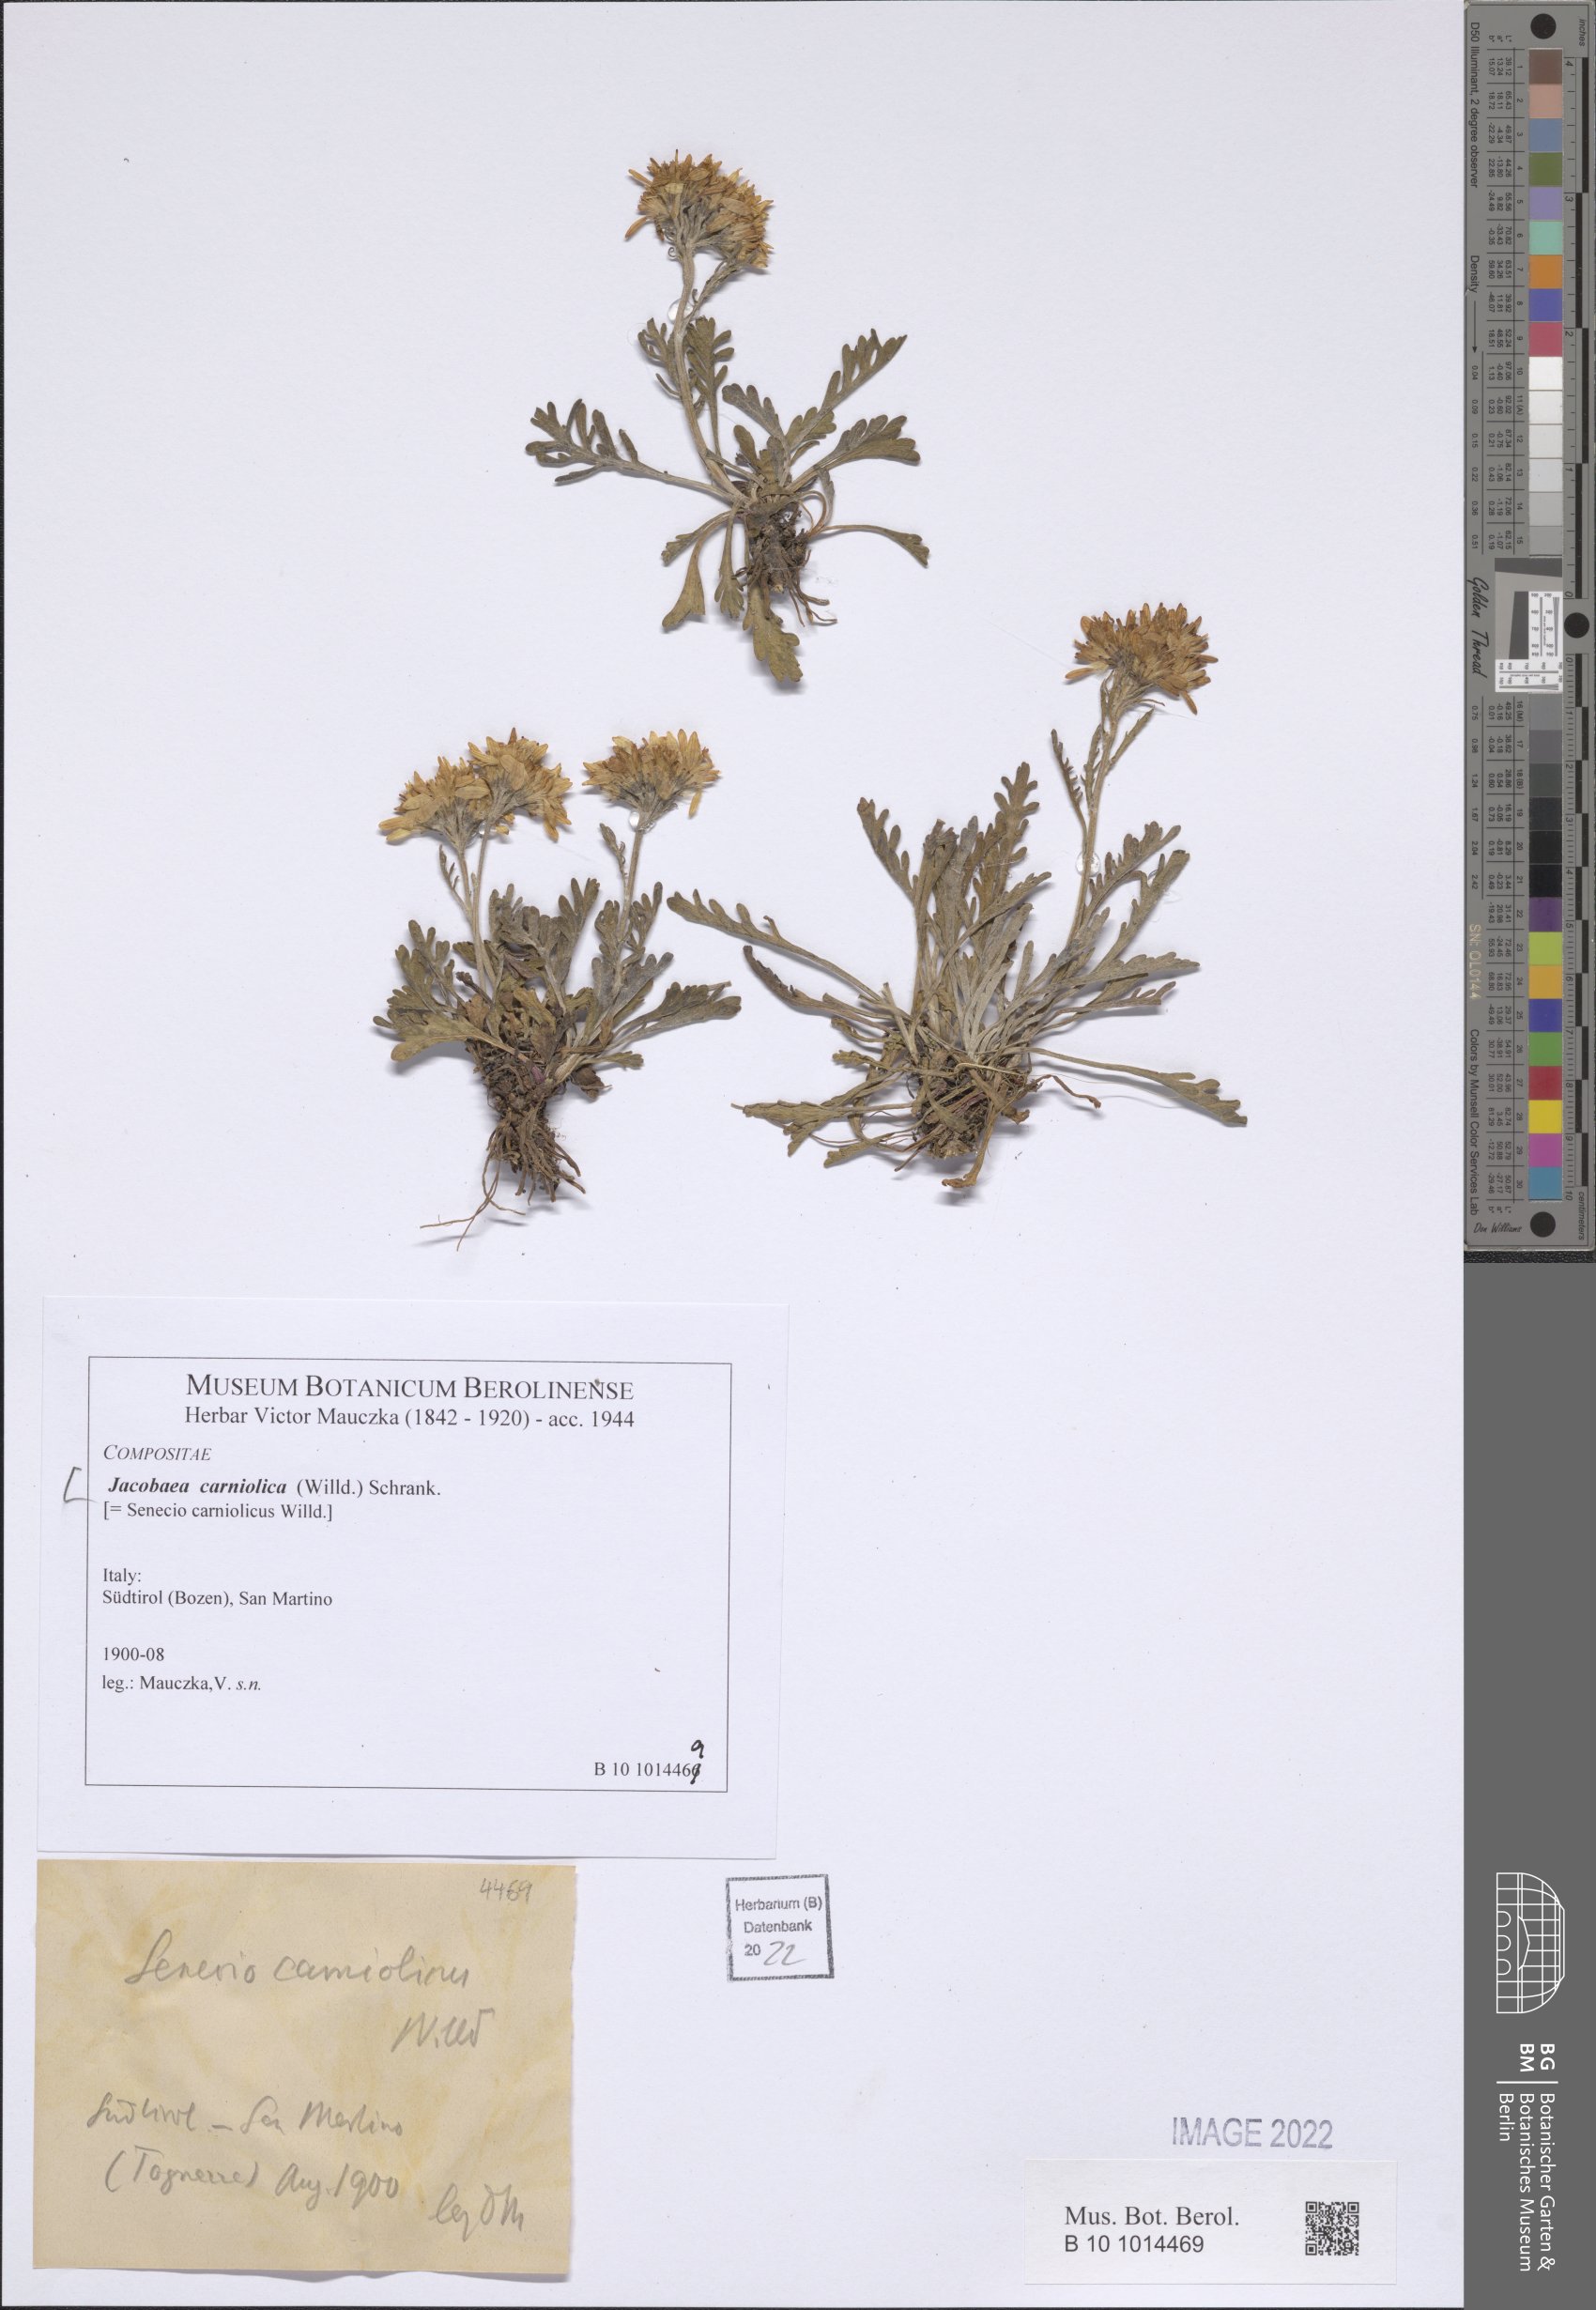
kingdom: Plantae
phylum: Tracheophyta
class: Magnoliopsida
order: Asterales
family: Asteraceae
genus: Jacobaea
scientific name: Jacobaea carniolica
